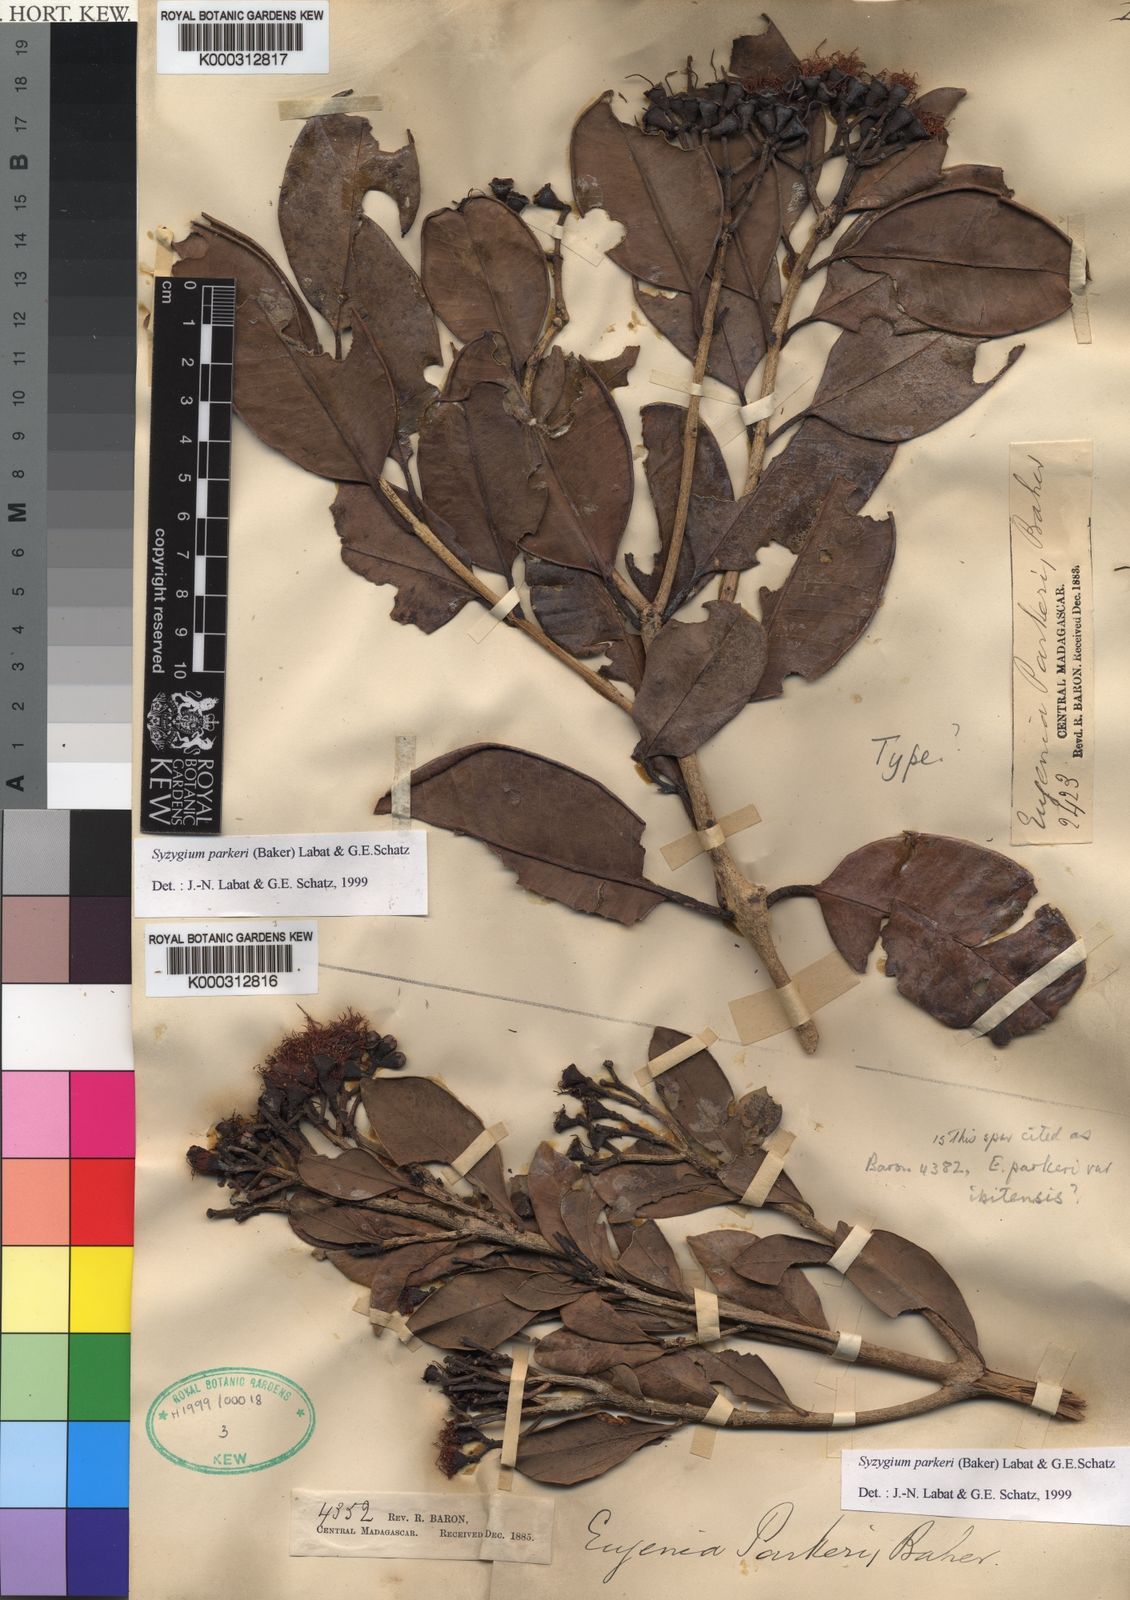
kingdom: Plantae
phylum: Tracheophyta
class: Magnoliopsida
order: Myrtales
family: Myrtaceae
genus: Syzygium
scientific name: Syzygium parkeri
